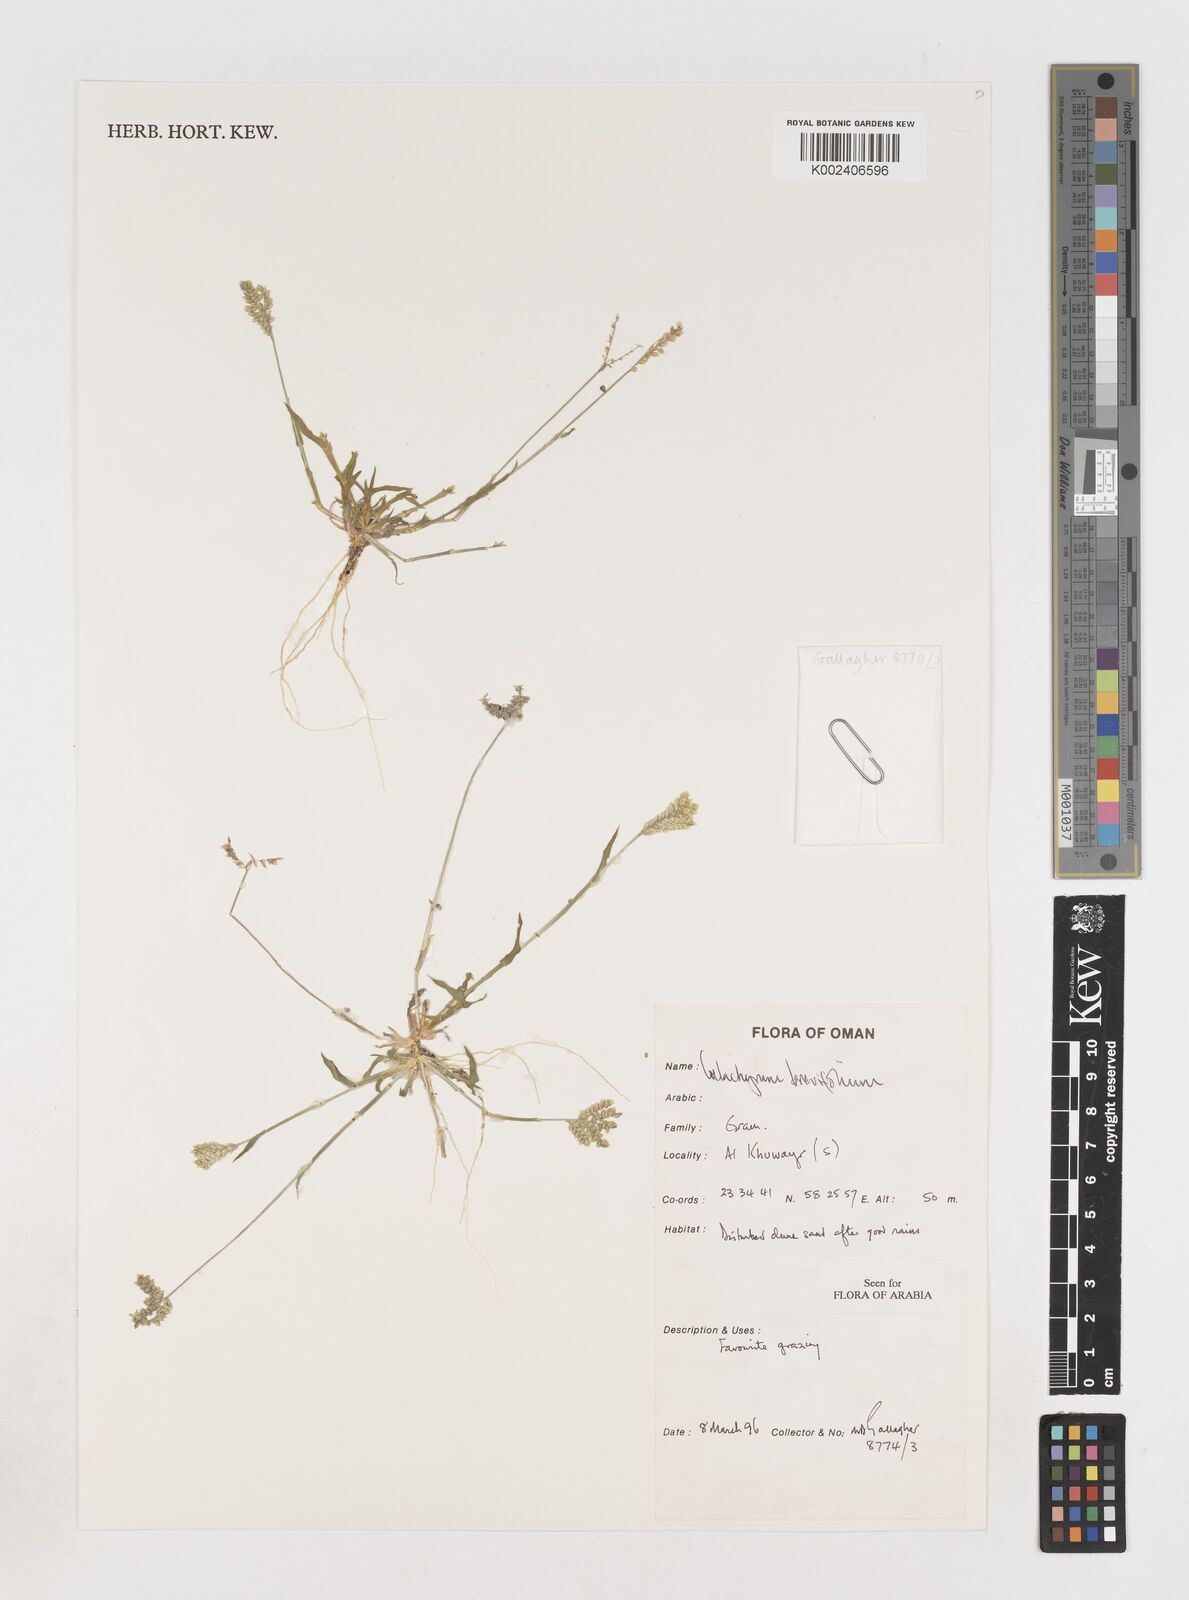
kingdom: Plantae
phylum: Tracheophyta
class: Liliopsida
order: Poales
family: Poaceae
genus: Coelachyrum
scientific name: Coelachyrum brevifolium
